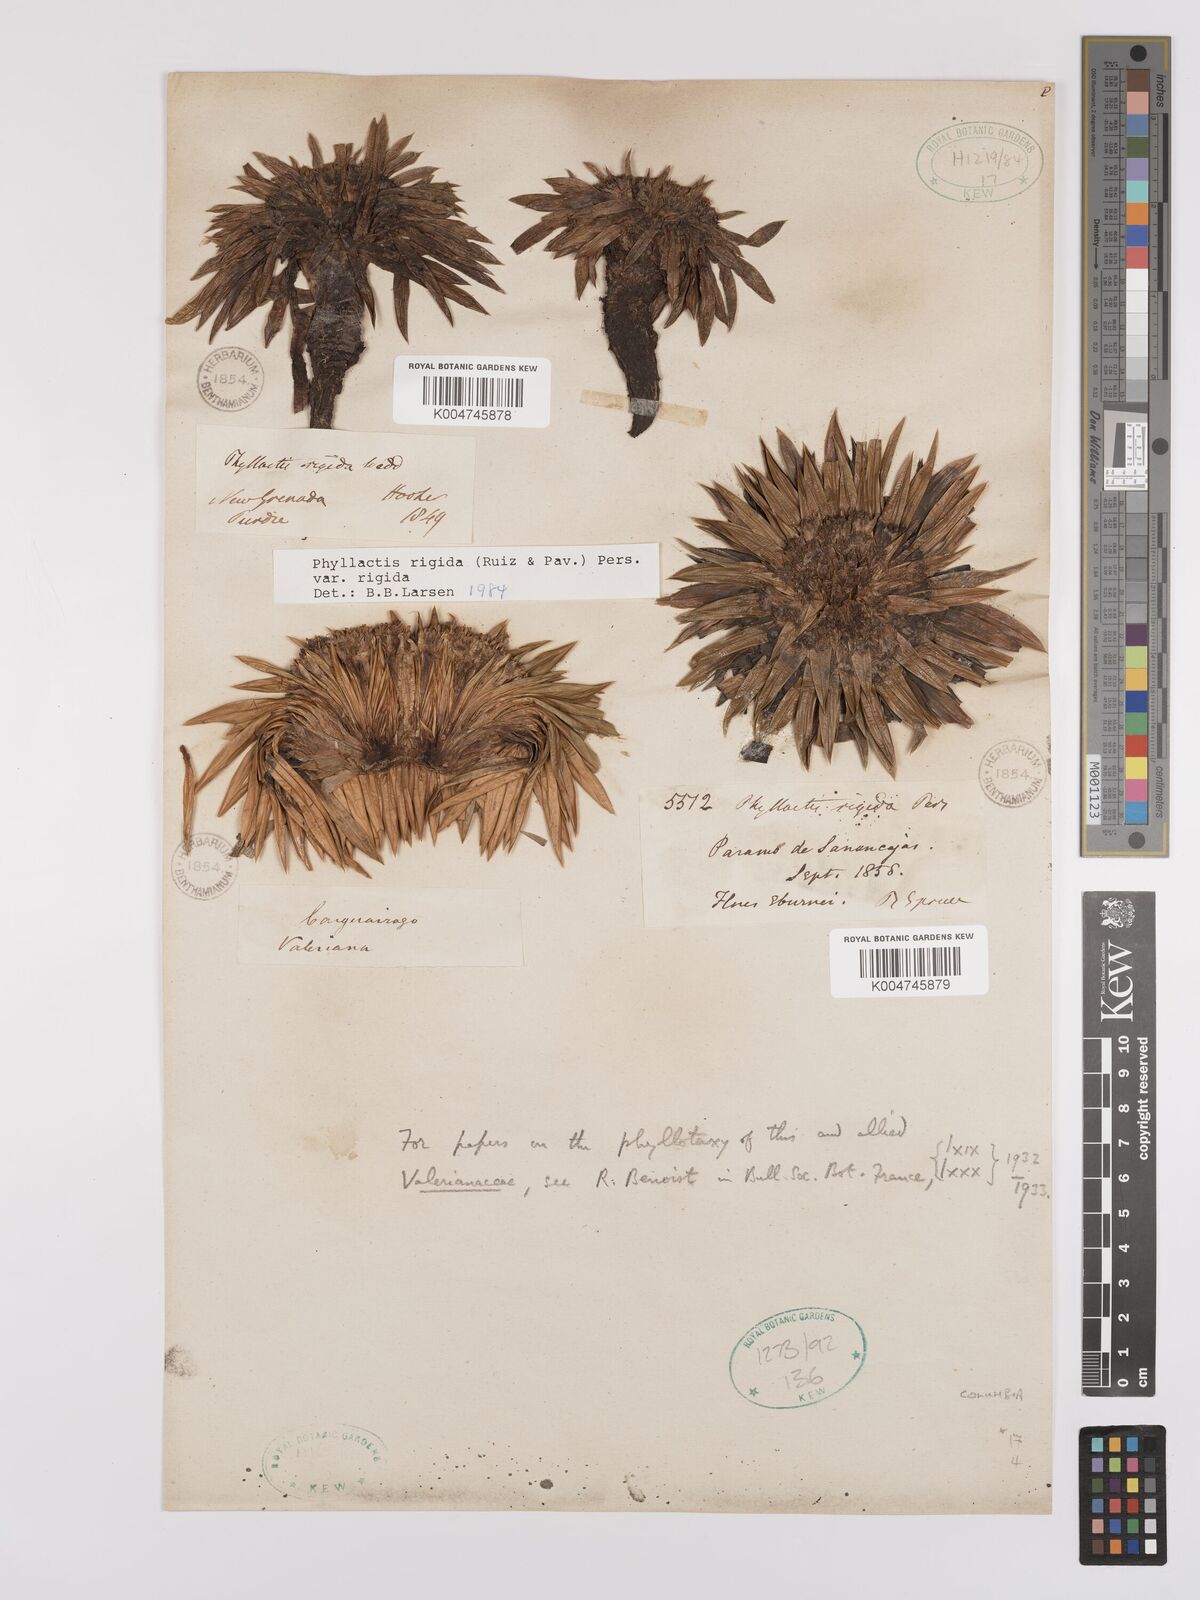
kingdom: Plantae
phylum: Tracheophyta
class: Magnoliopsida
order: Dipsacales
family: Caprifoliaceae
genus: Valeriana
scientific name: Valeriana rigida
